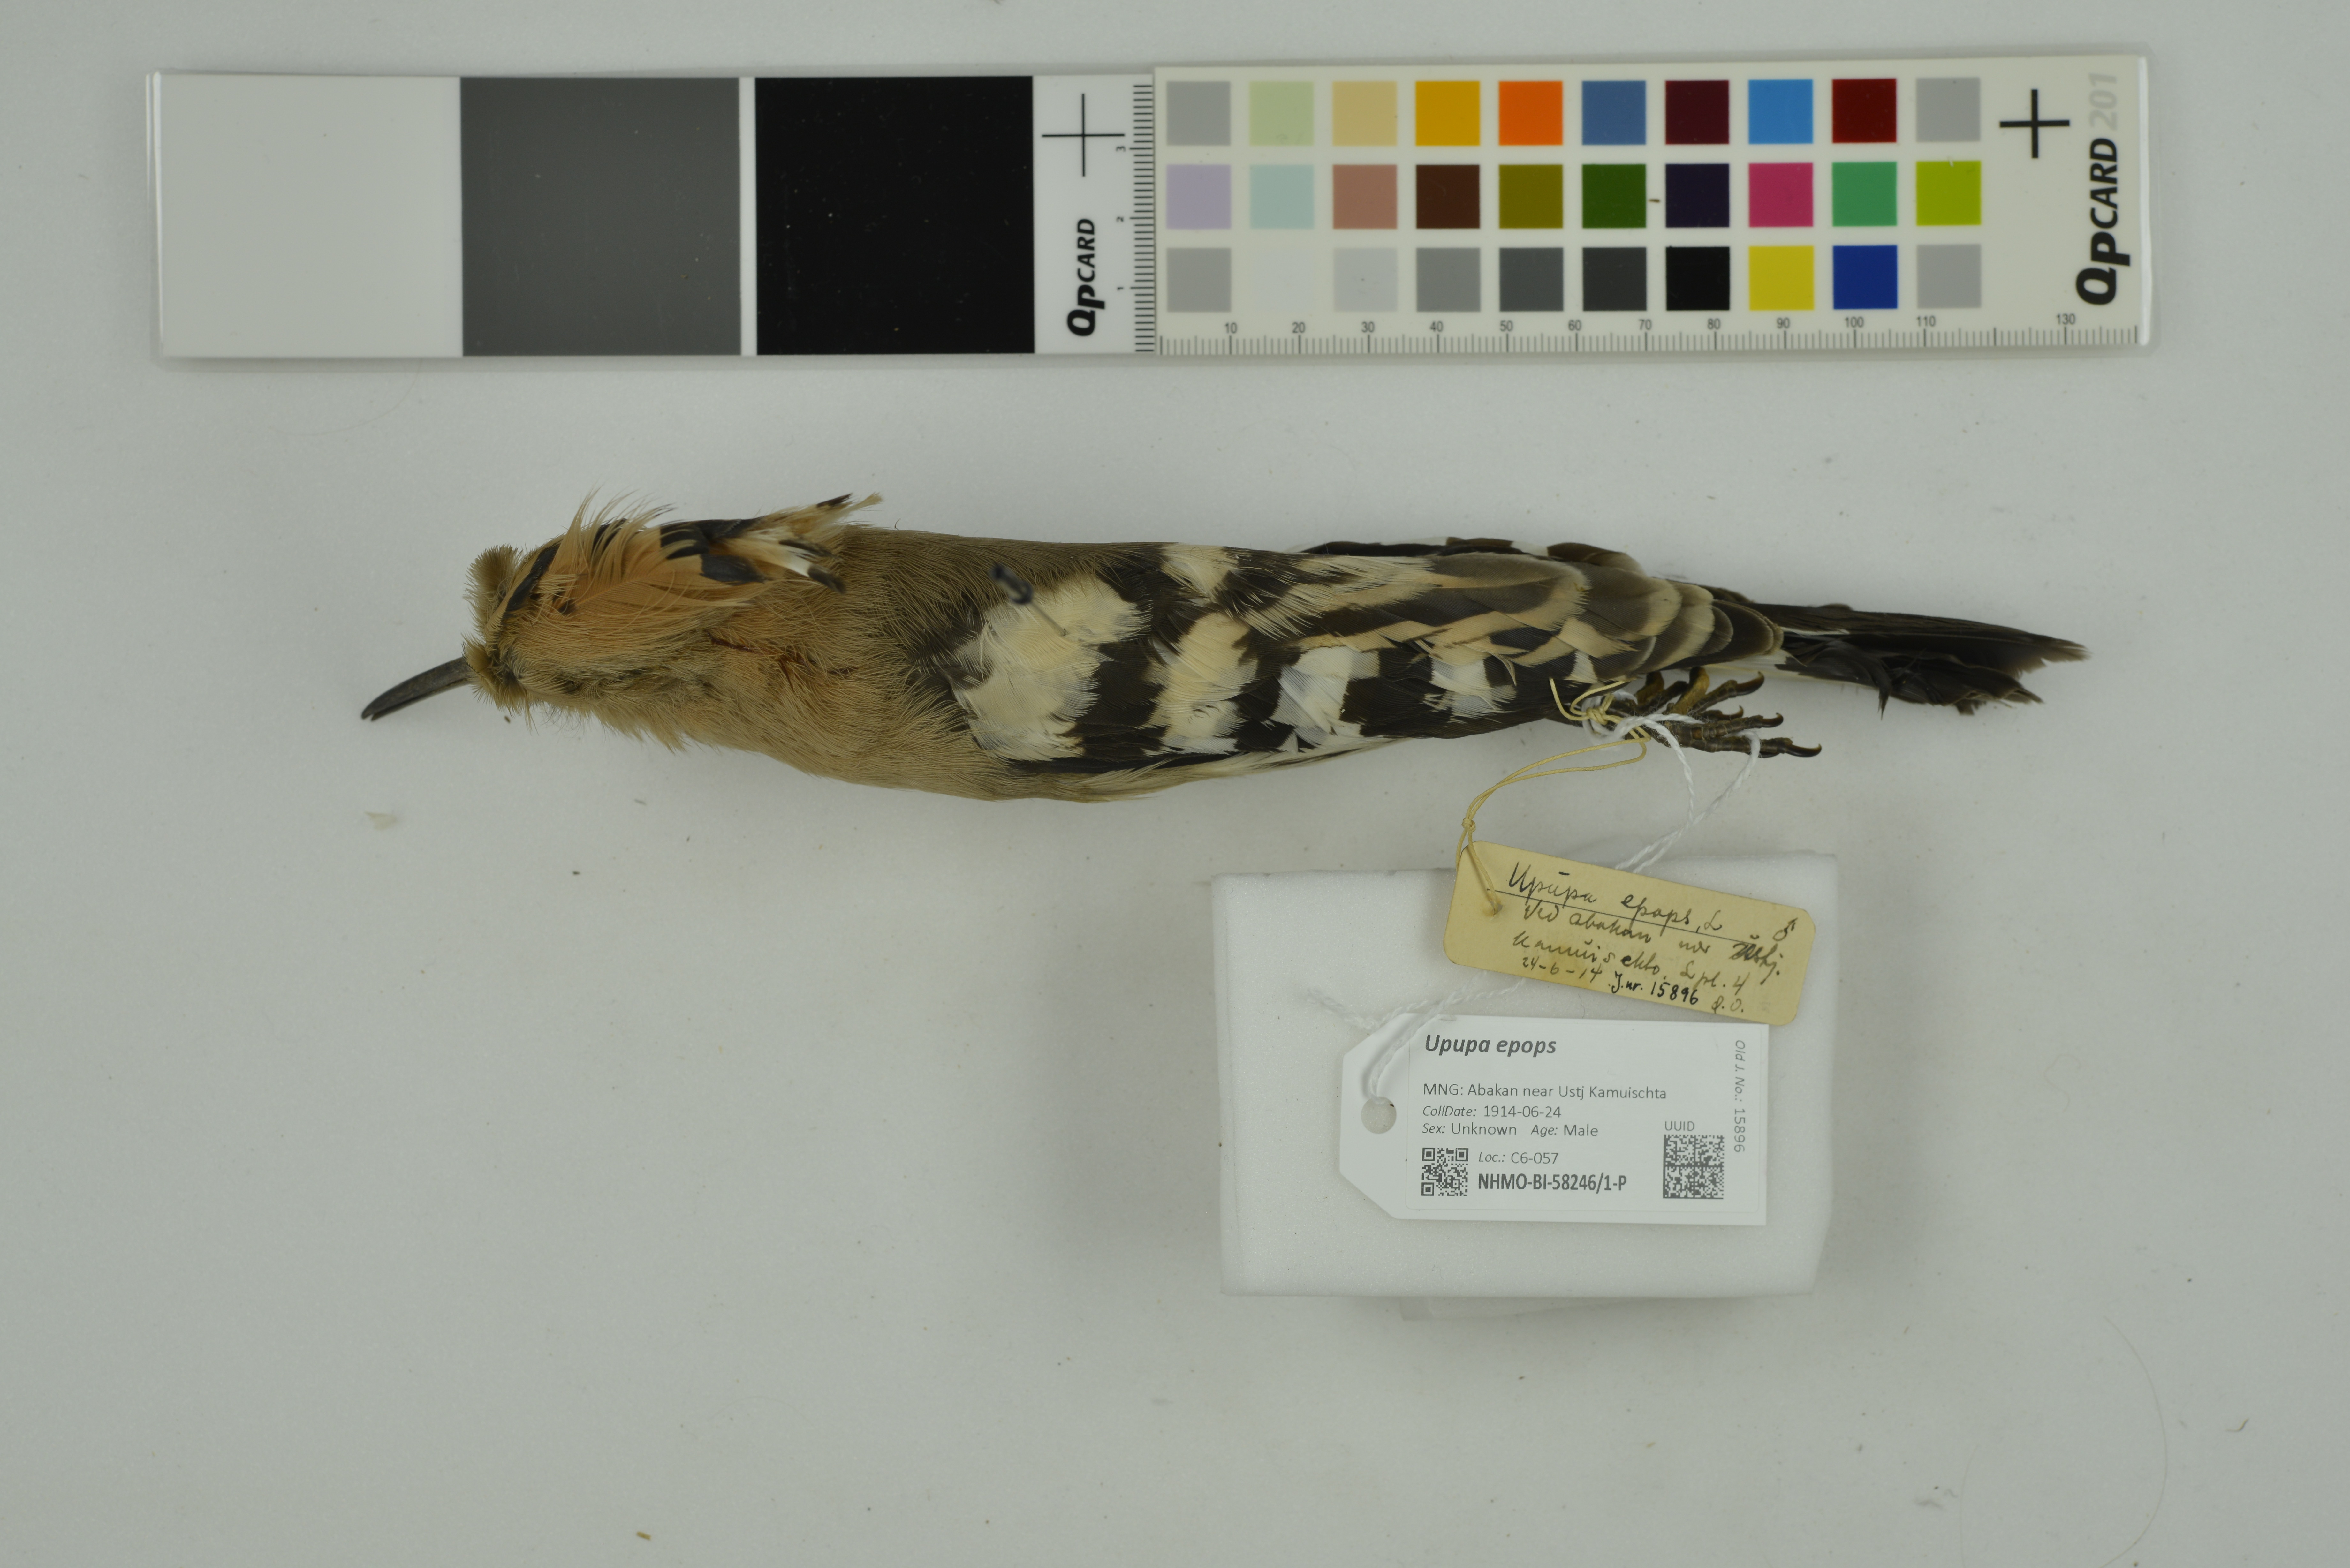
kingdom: Animalia
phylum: Chordata
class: Aves
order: Bucerotiformes
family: Upupidae
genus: Upupa
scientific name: Upupa epops
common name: Eurasian hoopoe
